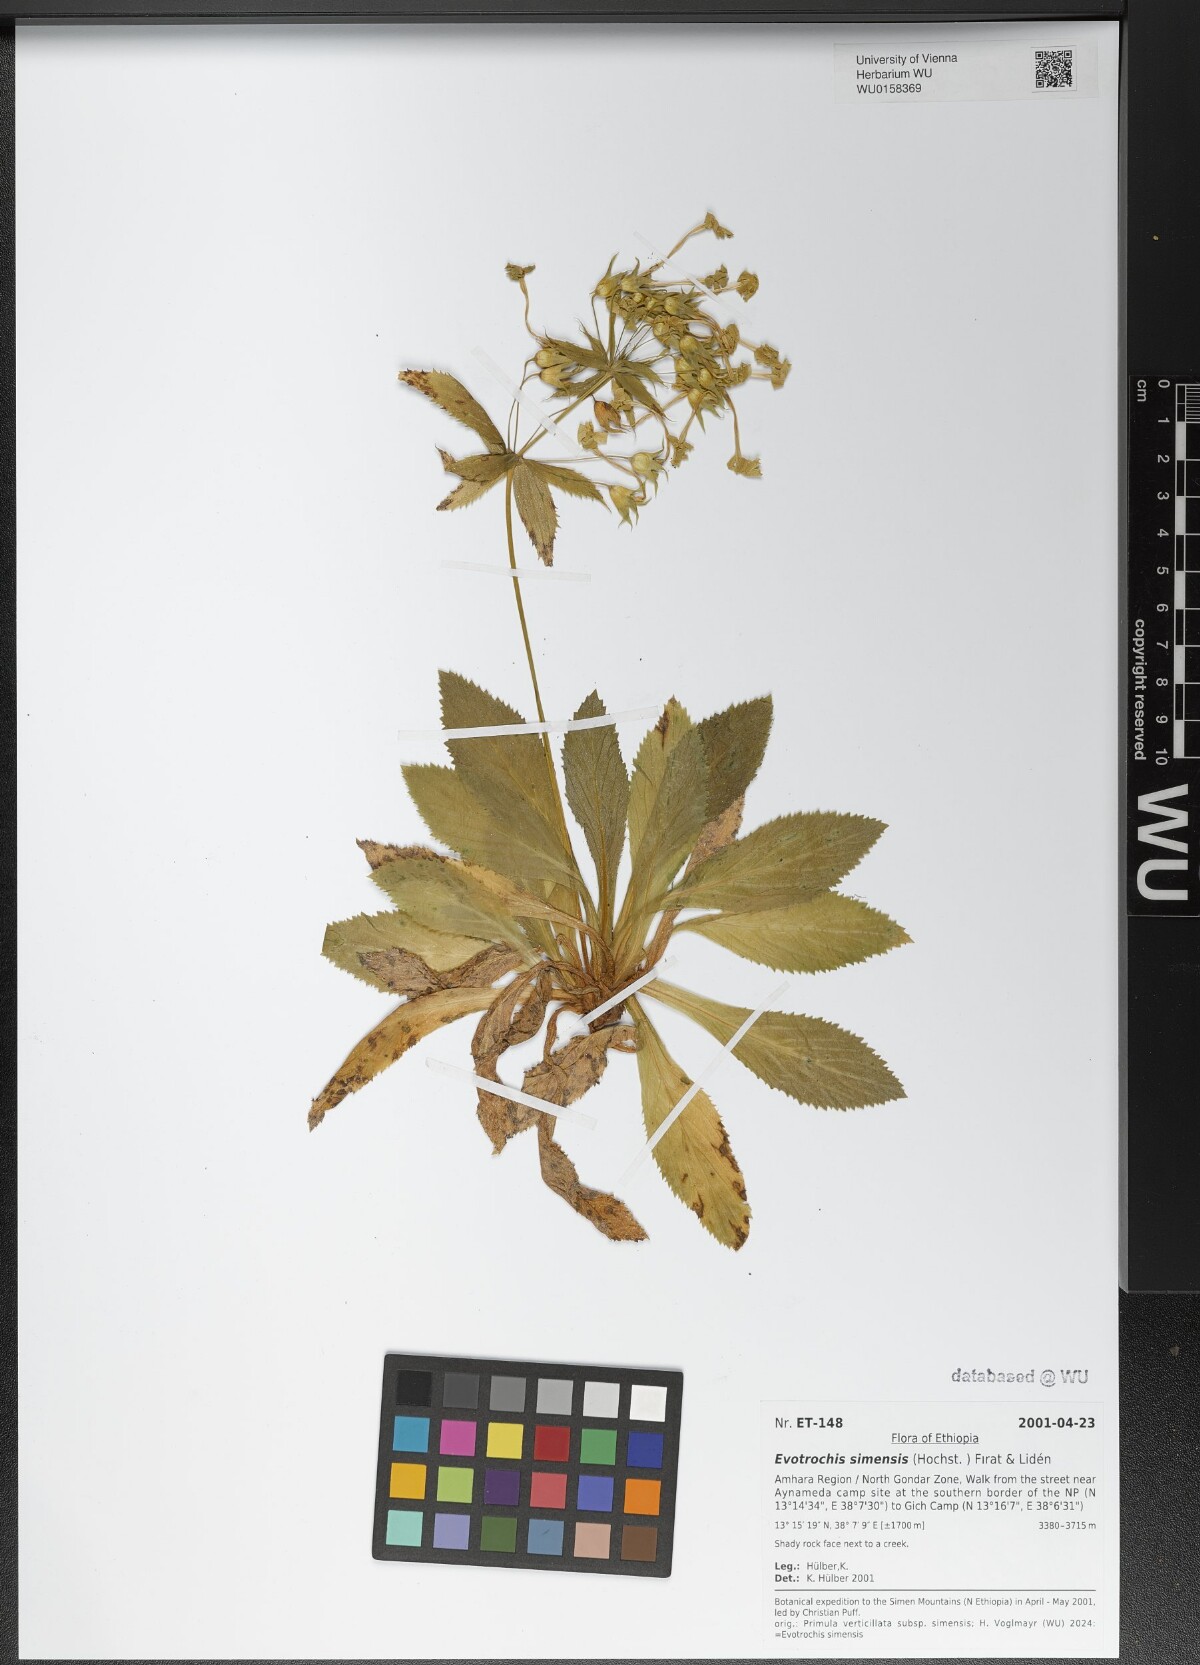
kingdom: Plantae
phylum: Tracheophyta
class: Magnoliopsida
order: Ericales
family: Primulaceae
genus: Evotrochis
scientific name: Evotrochis simensis
